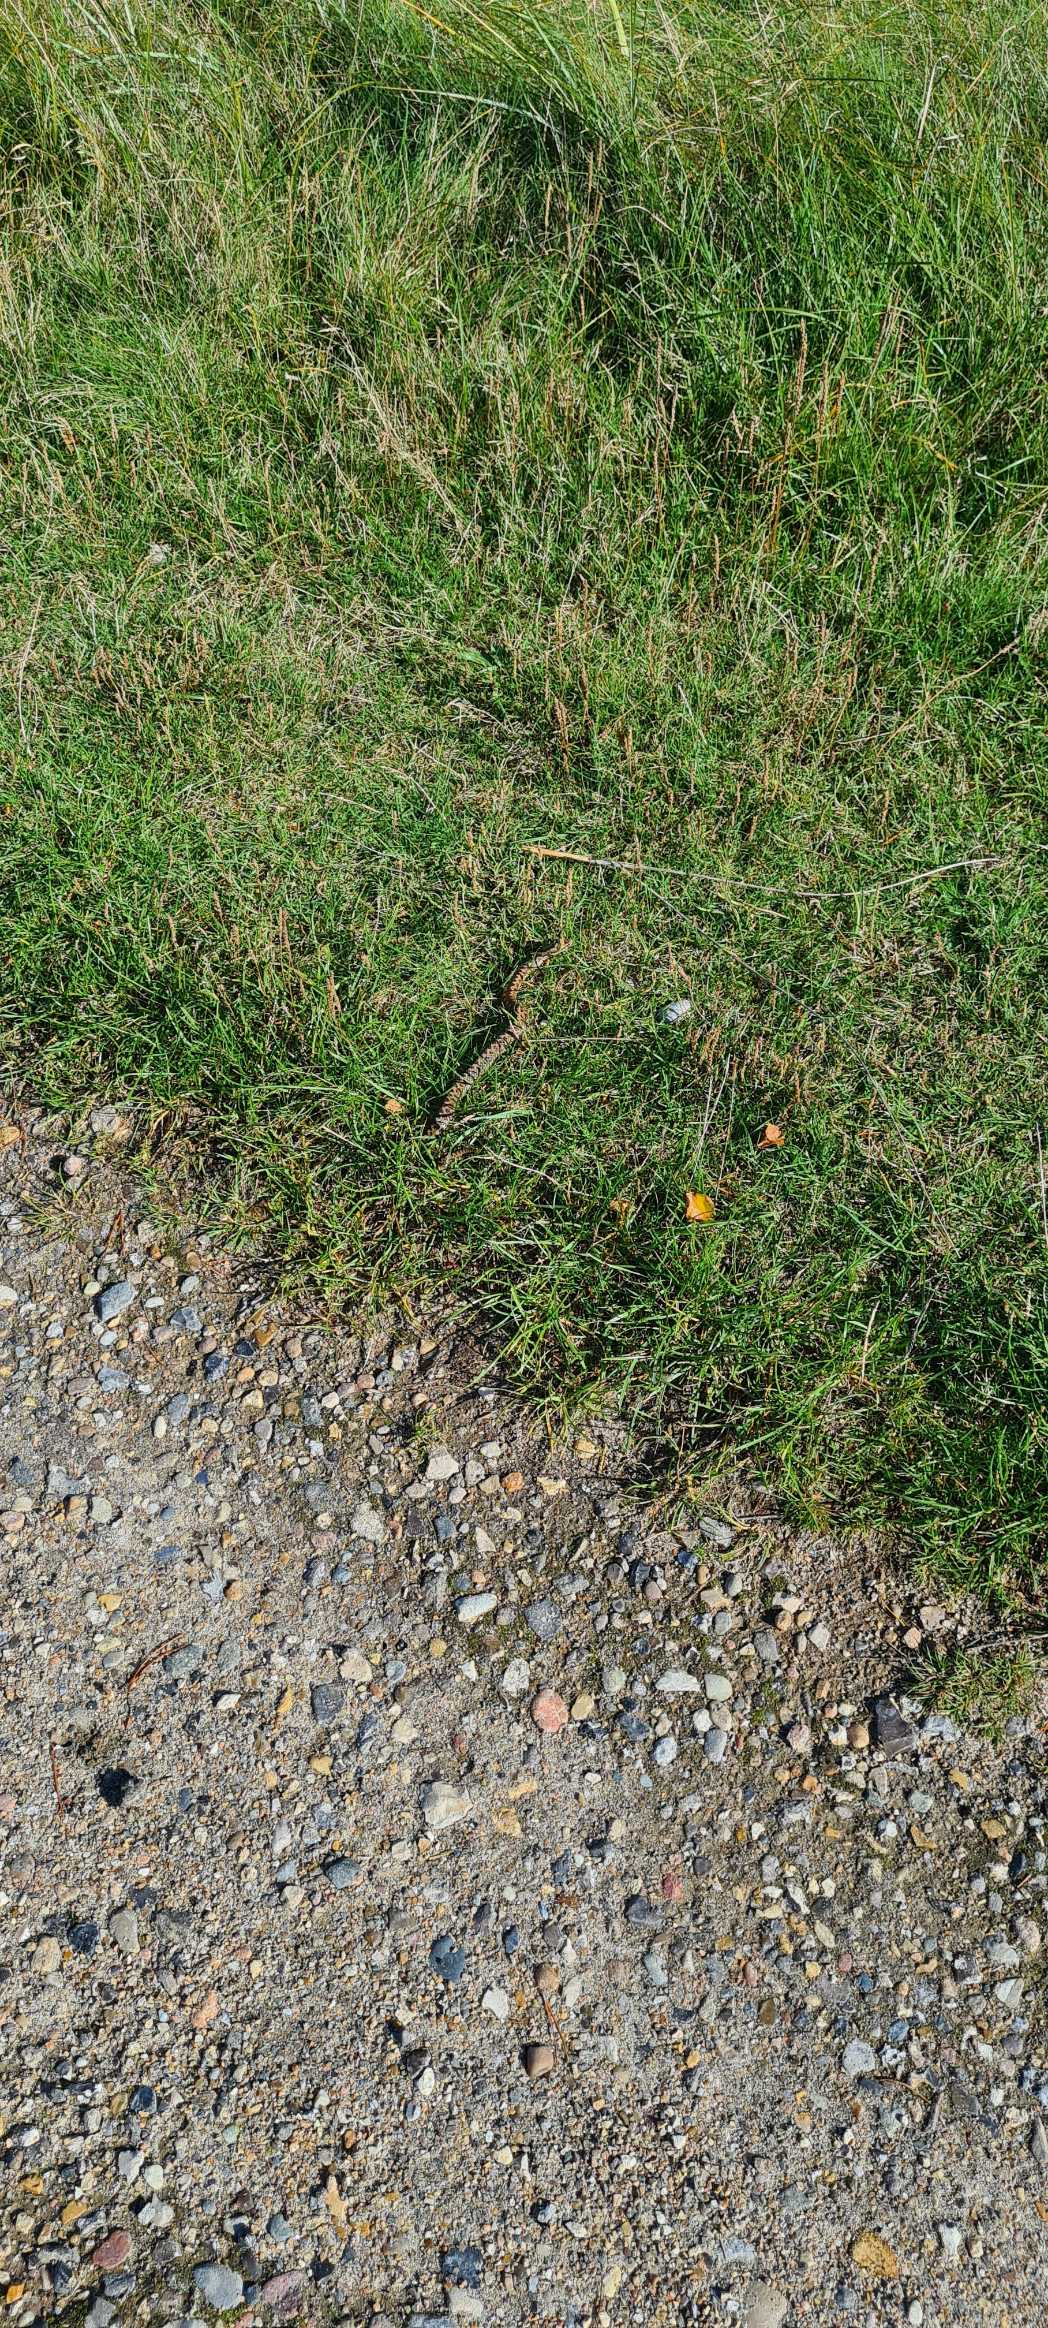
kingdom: Animalia
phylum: Chordata
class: Squamata
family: Viperidae
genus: Vipera
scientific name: Vipera berus
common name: Hugorm
